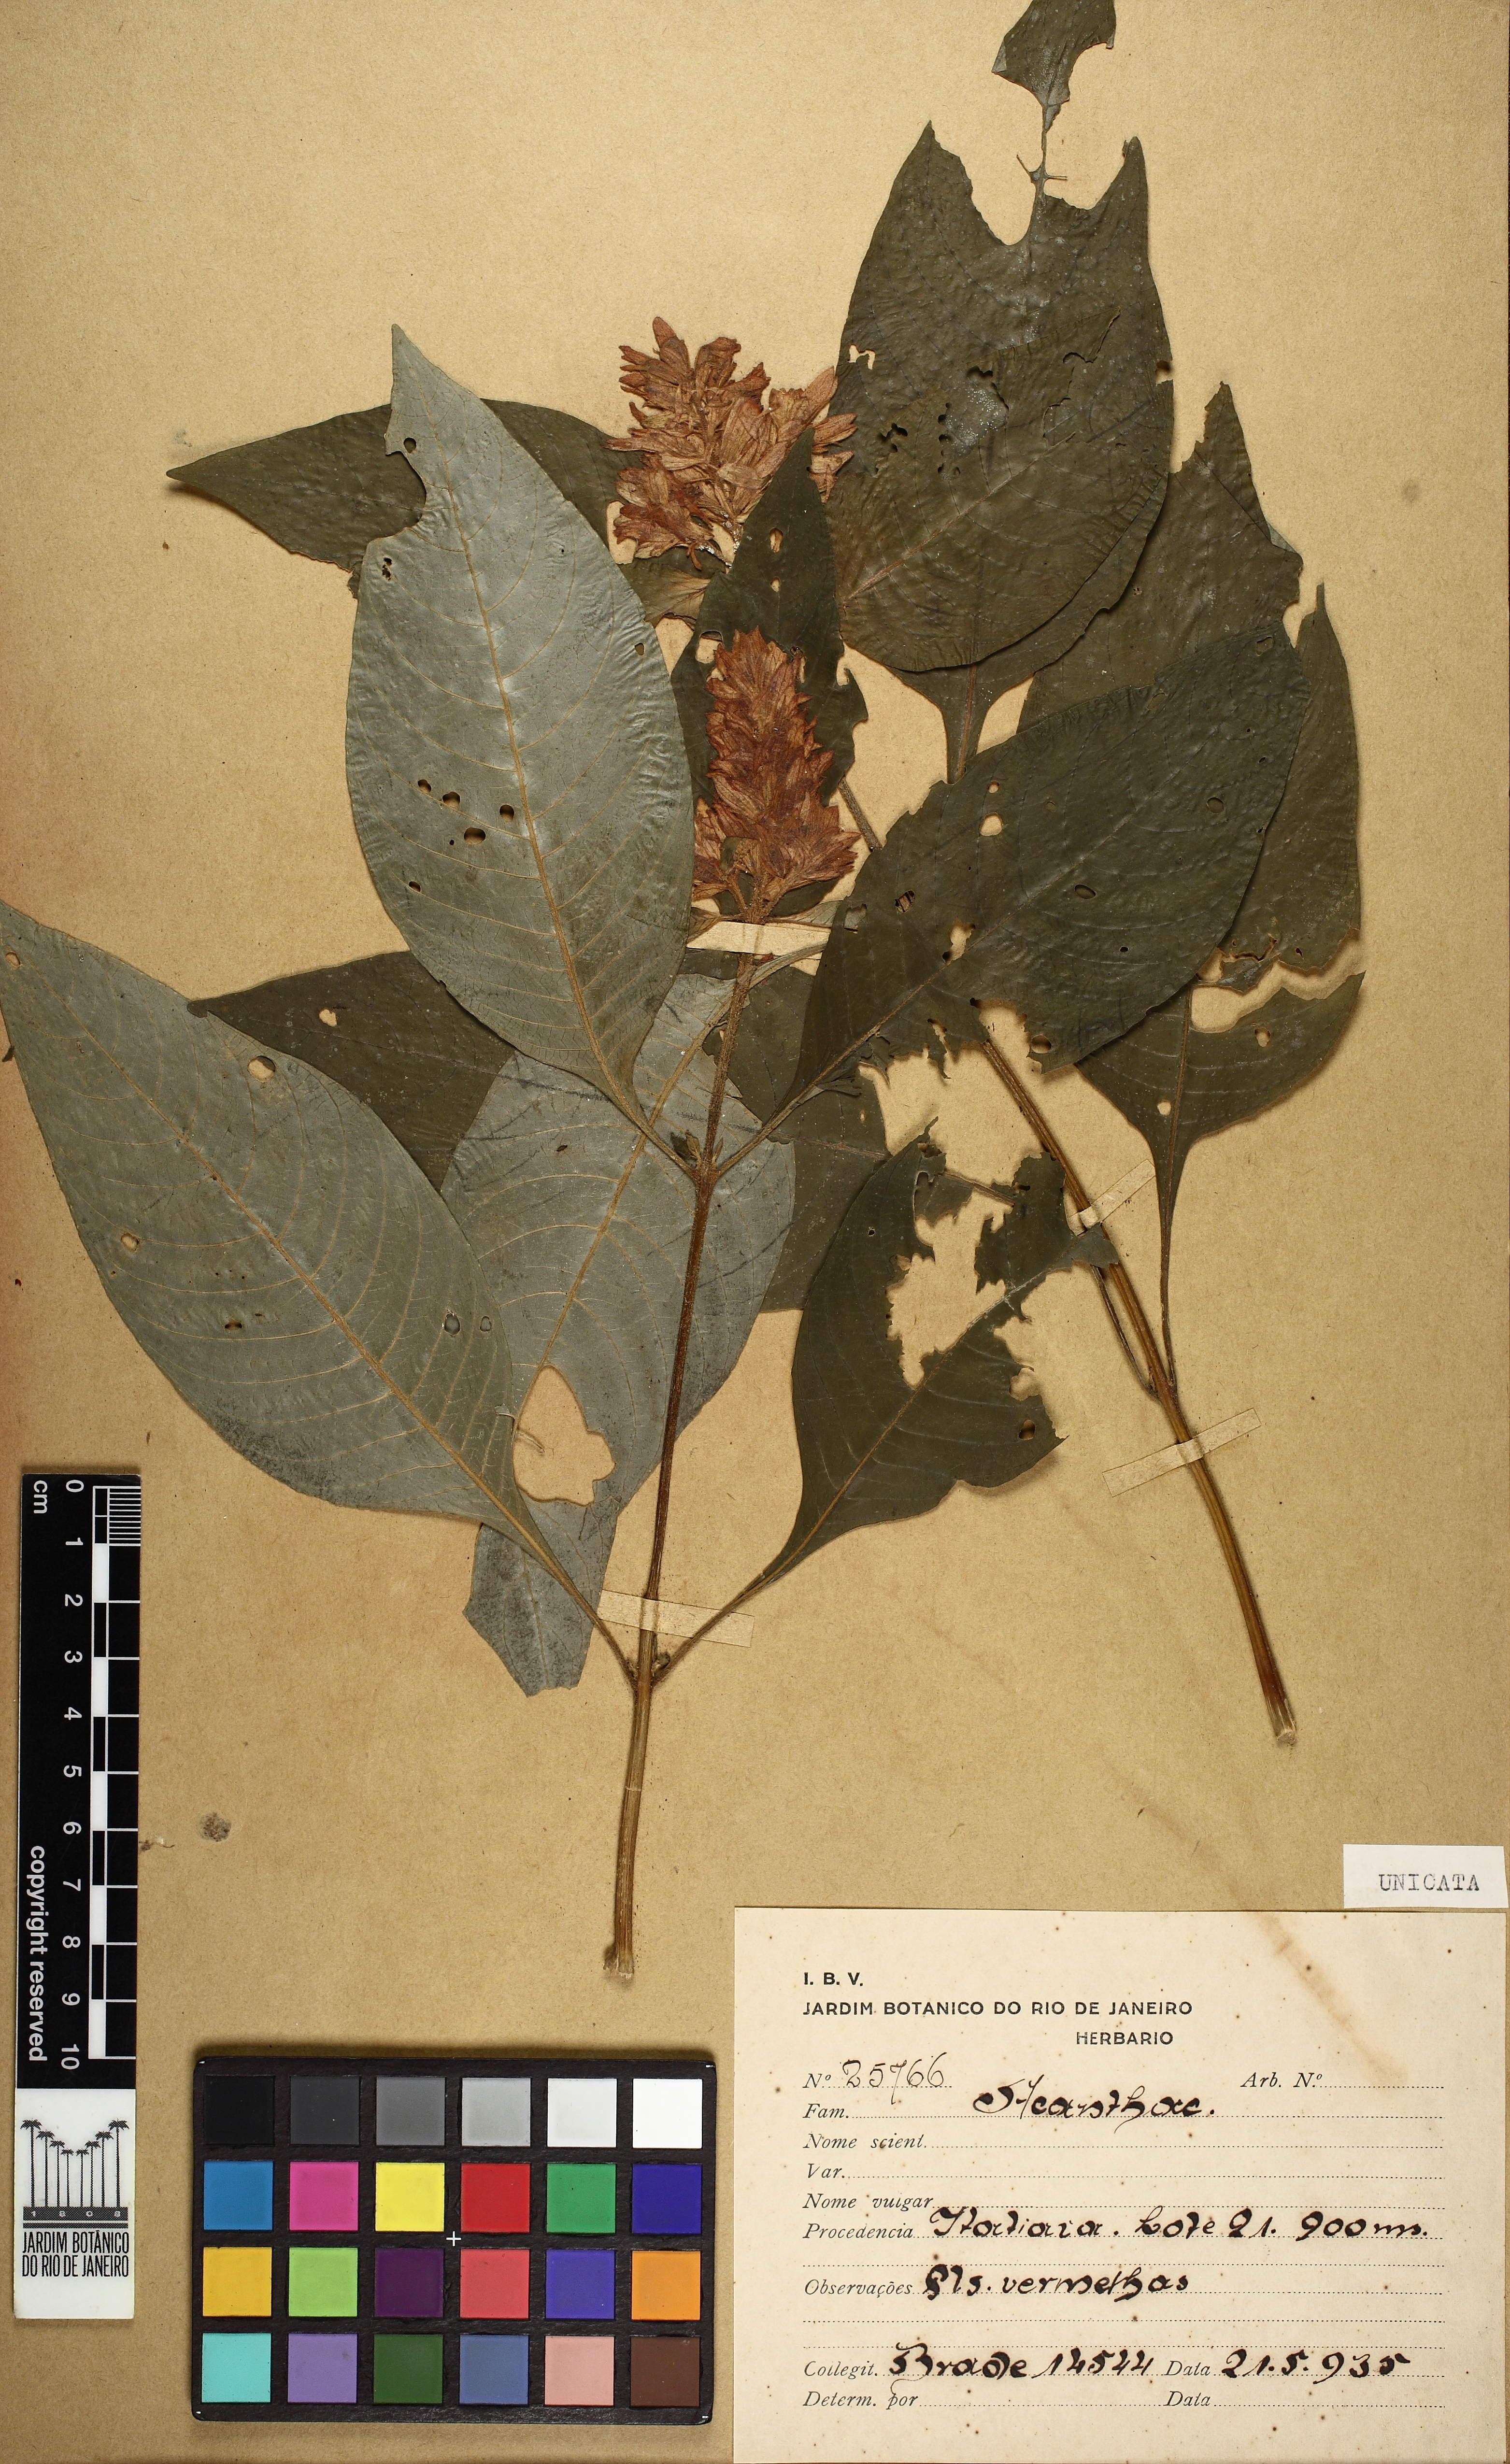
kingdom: Plantae
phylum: Tracheophyta
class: Magnoliopsida
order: Lamiales
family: Acanthaceae
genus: Staurogyne
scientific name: Staurogyne itatiaiae
